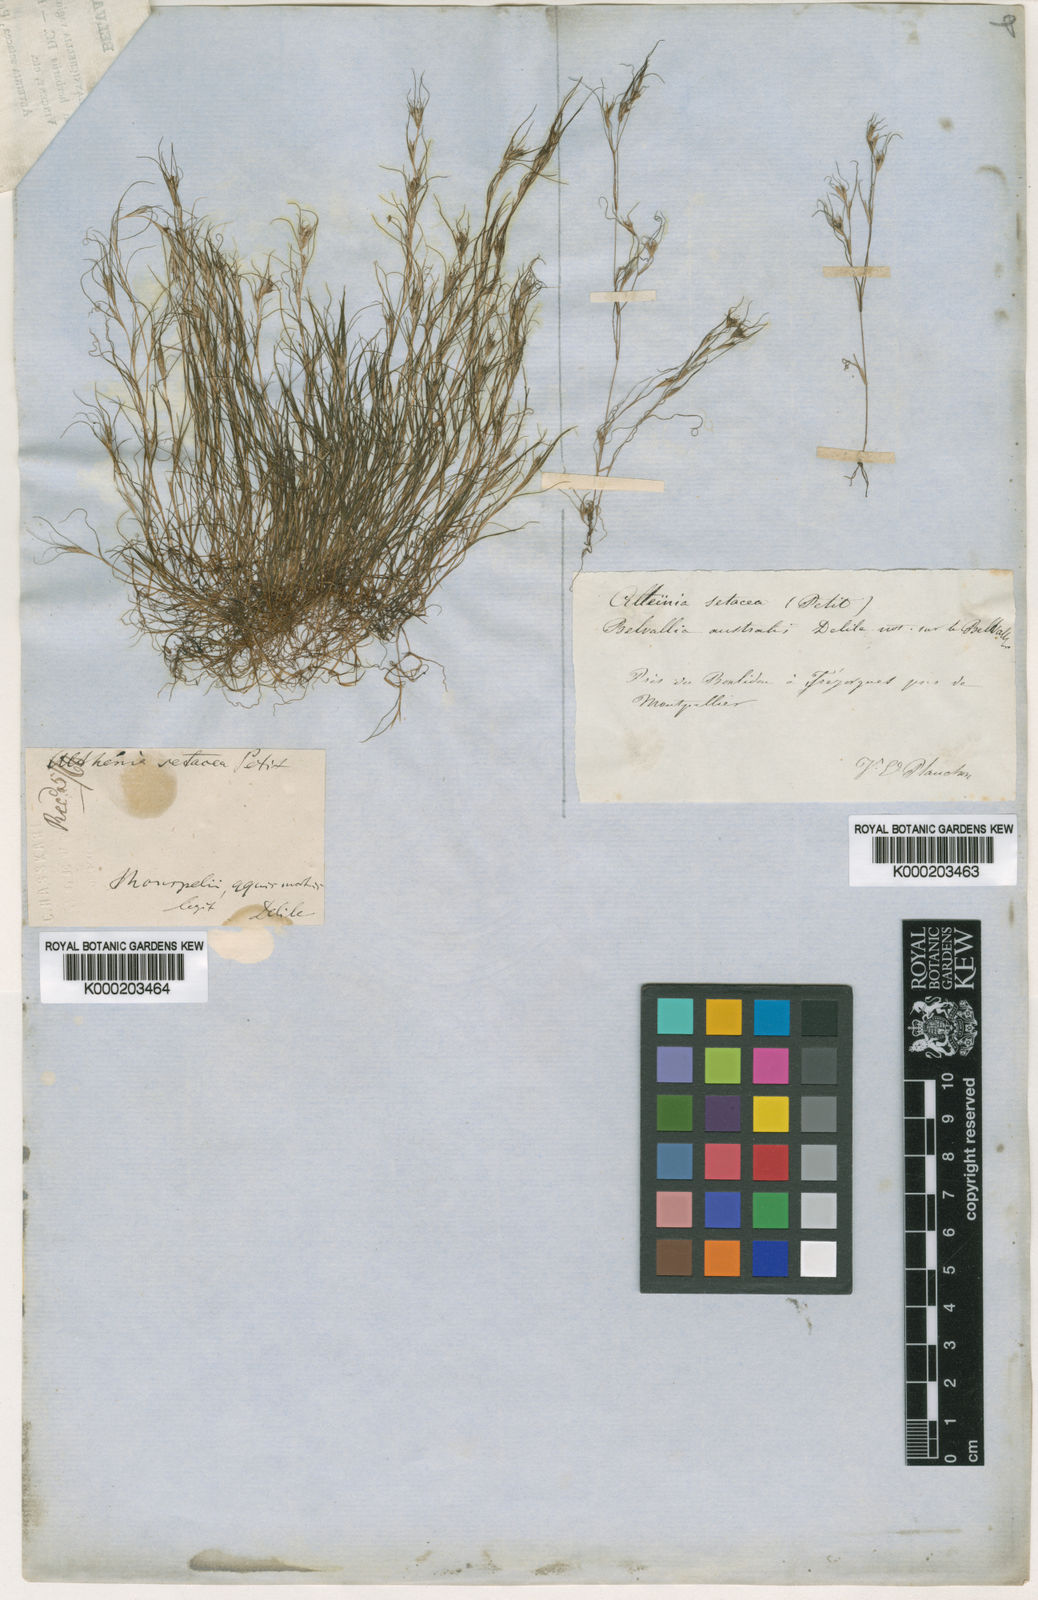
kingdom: Plantae
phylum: Tracheophyta
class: Liliopsida
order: Alismatales
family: Potamogetonaceae
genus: Althenia
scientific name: Althenia filiformis
